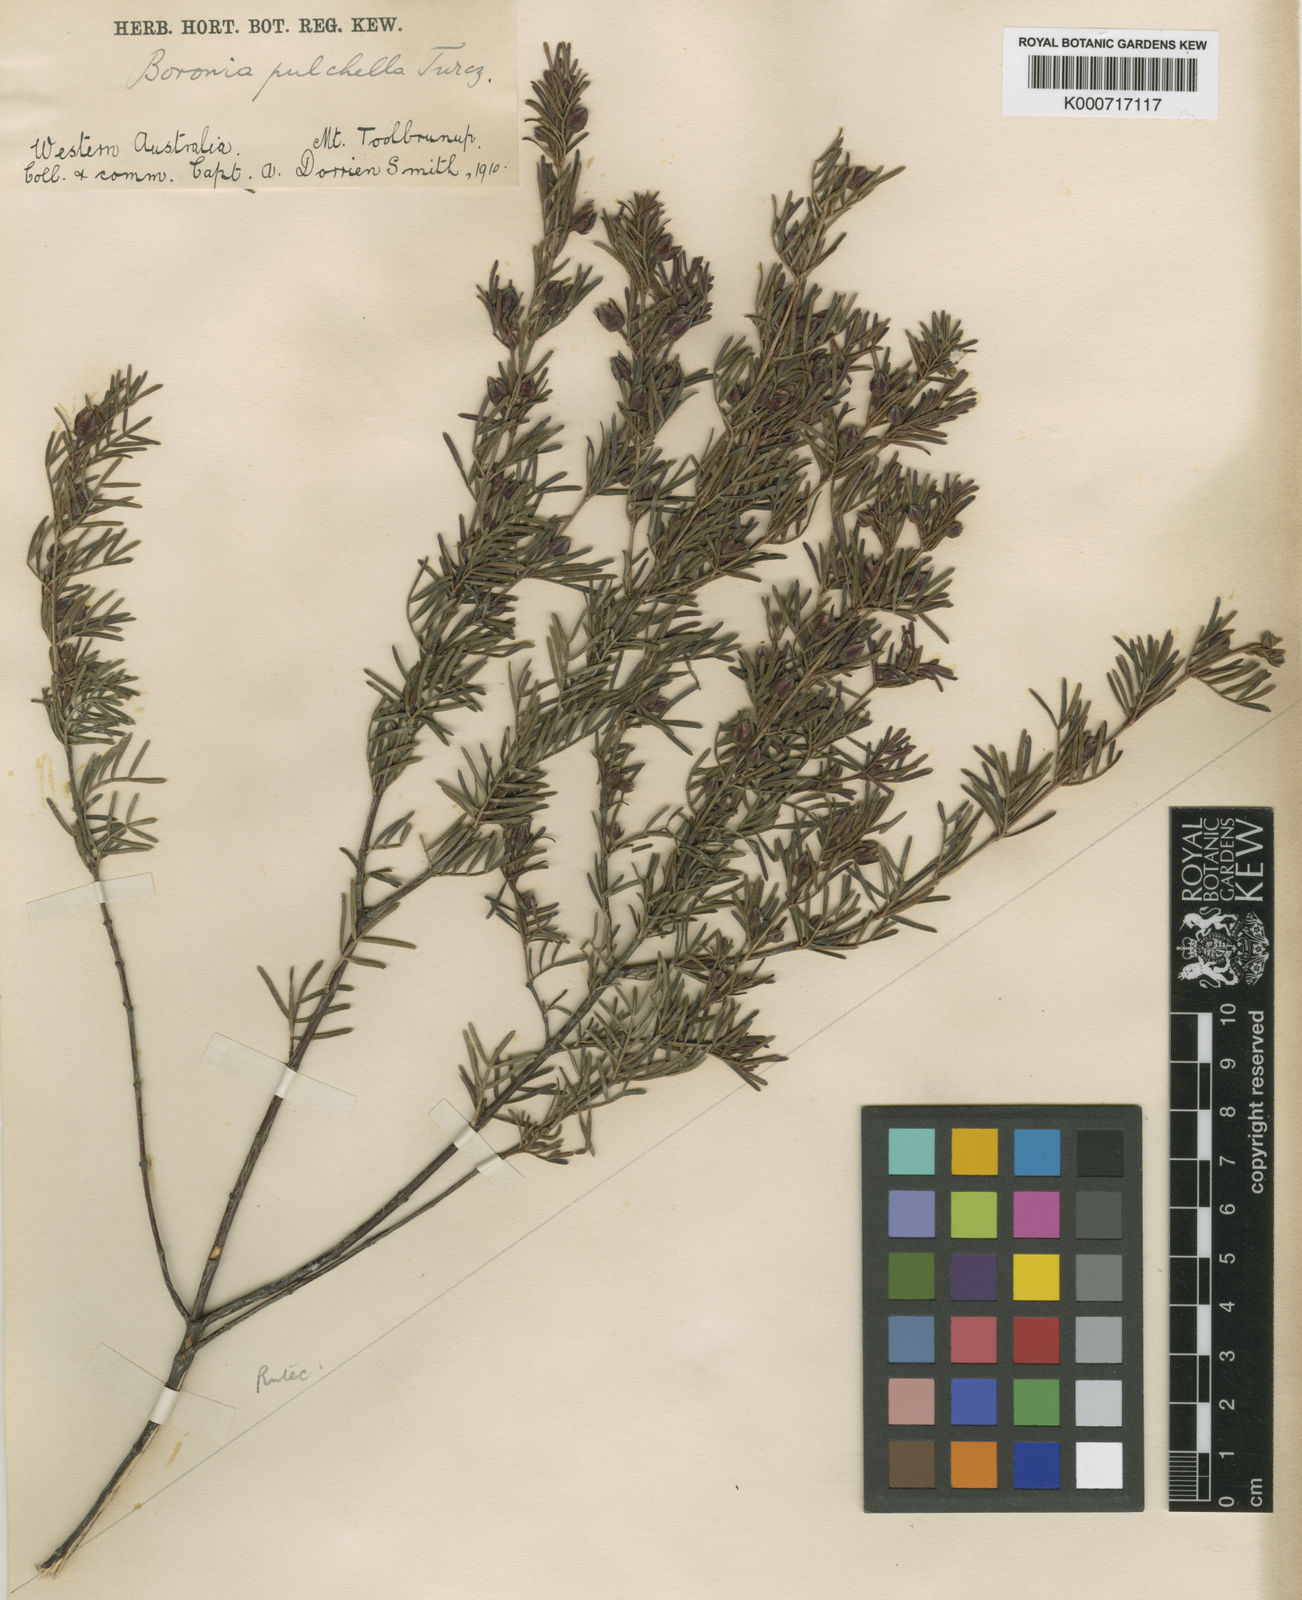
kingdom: Plantae
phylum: Tracheophyta
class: Magnoliopsida
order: Sapindales
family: Rutaceae
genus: Boronia
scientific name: Boronia pulchella
